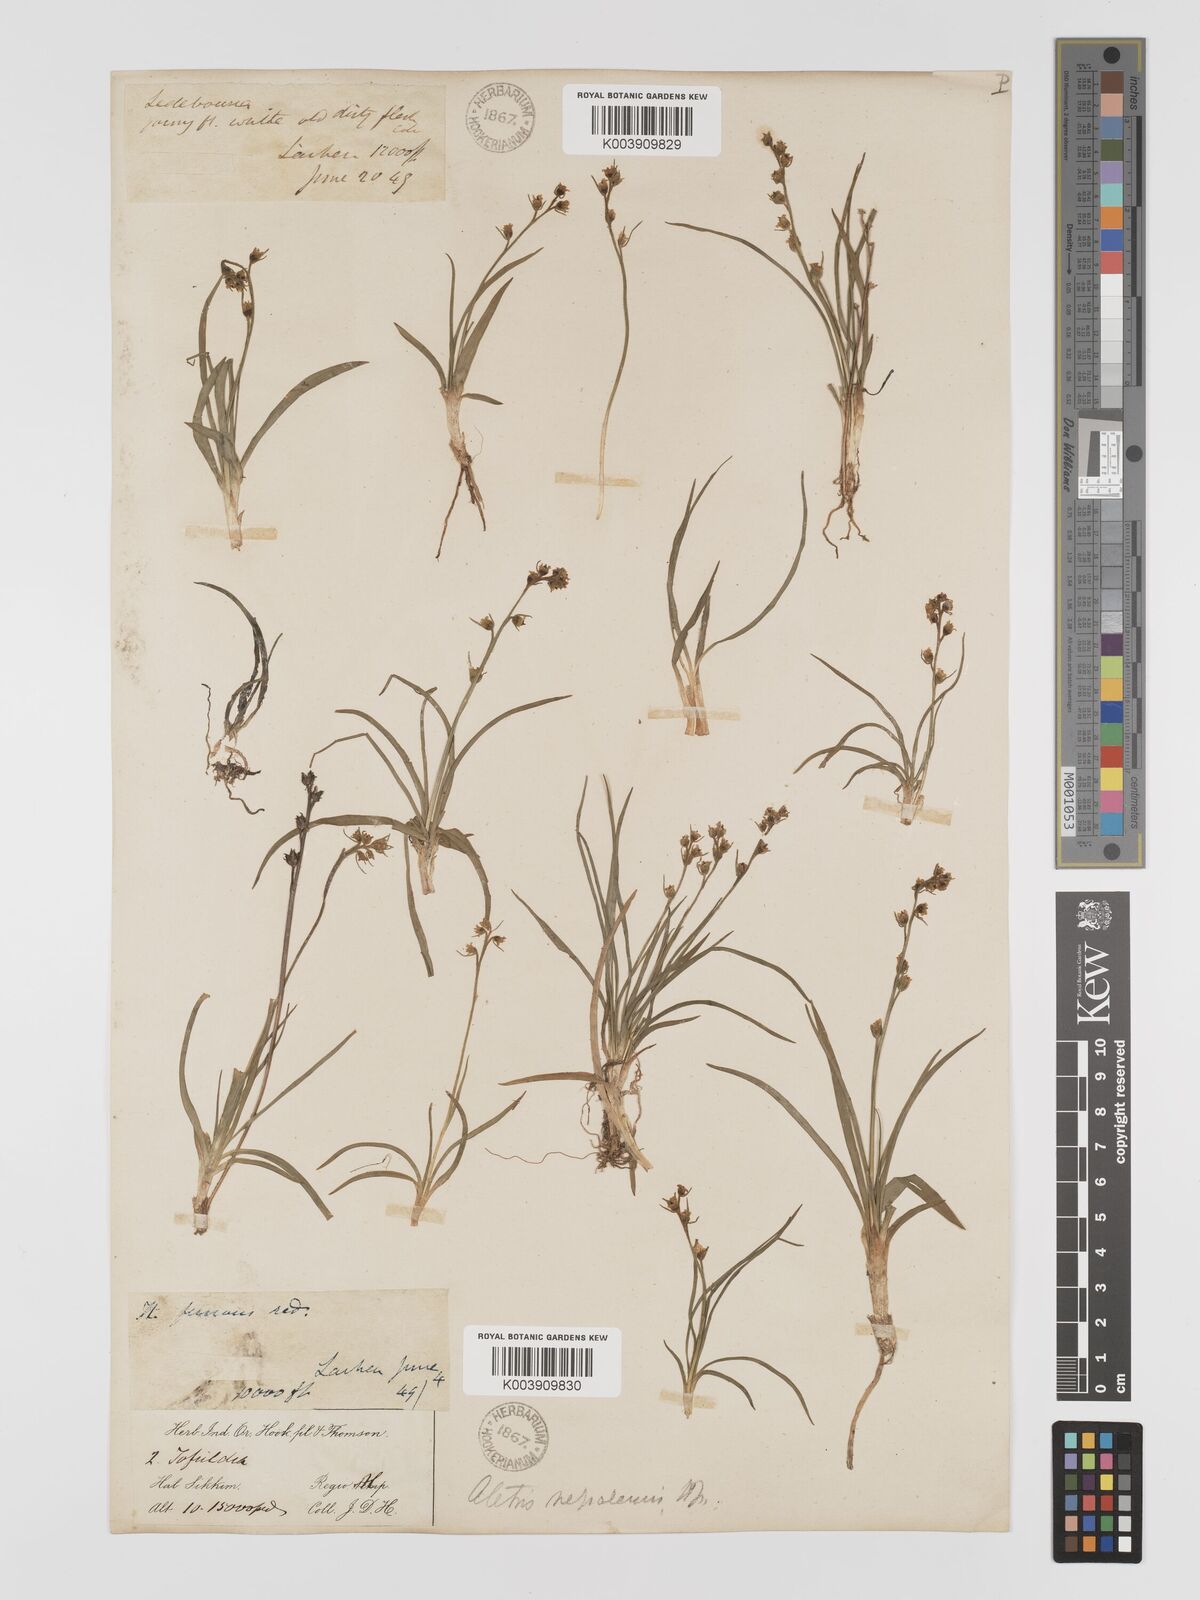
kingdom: Plantae
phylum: Tracheophyta
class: Liliopsida
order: Dioscoreales
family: Nartheciaceae
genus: Aletris
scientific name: Aletris pauciflora
